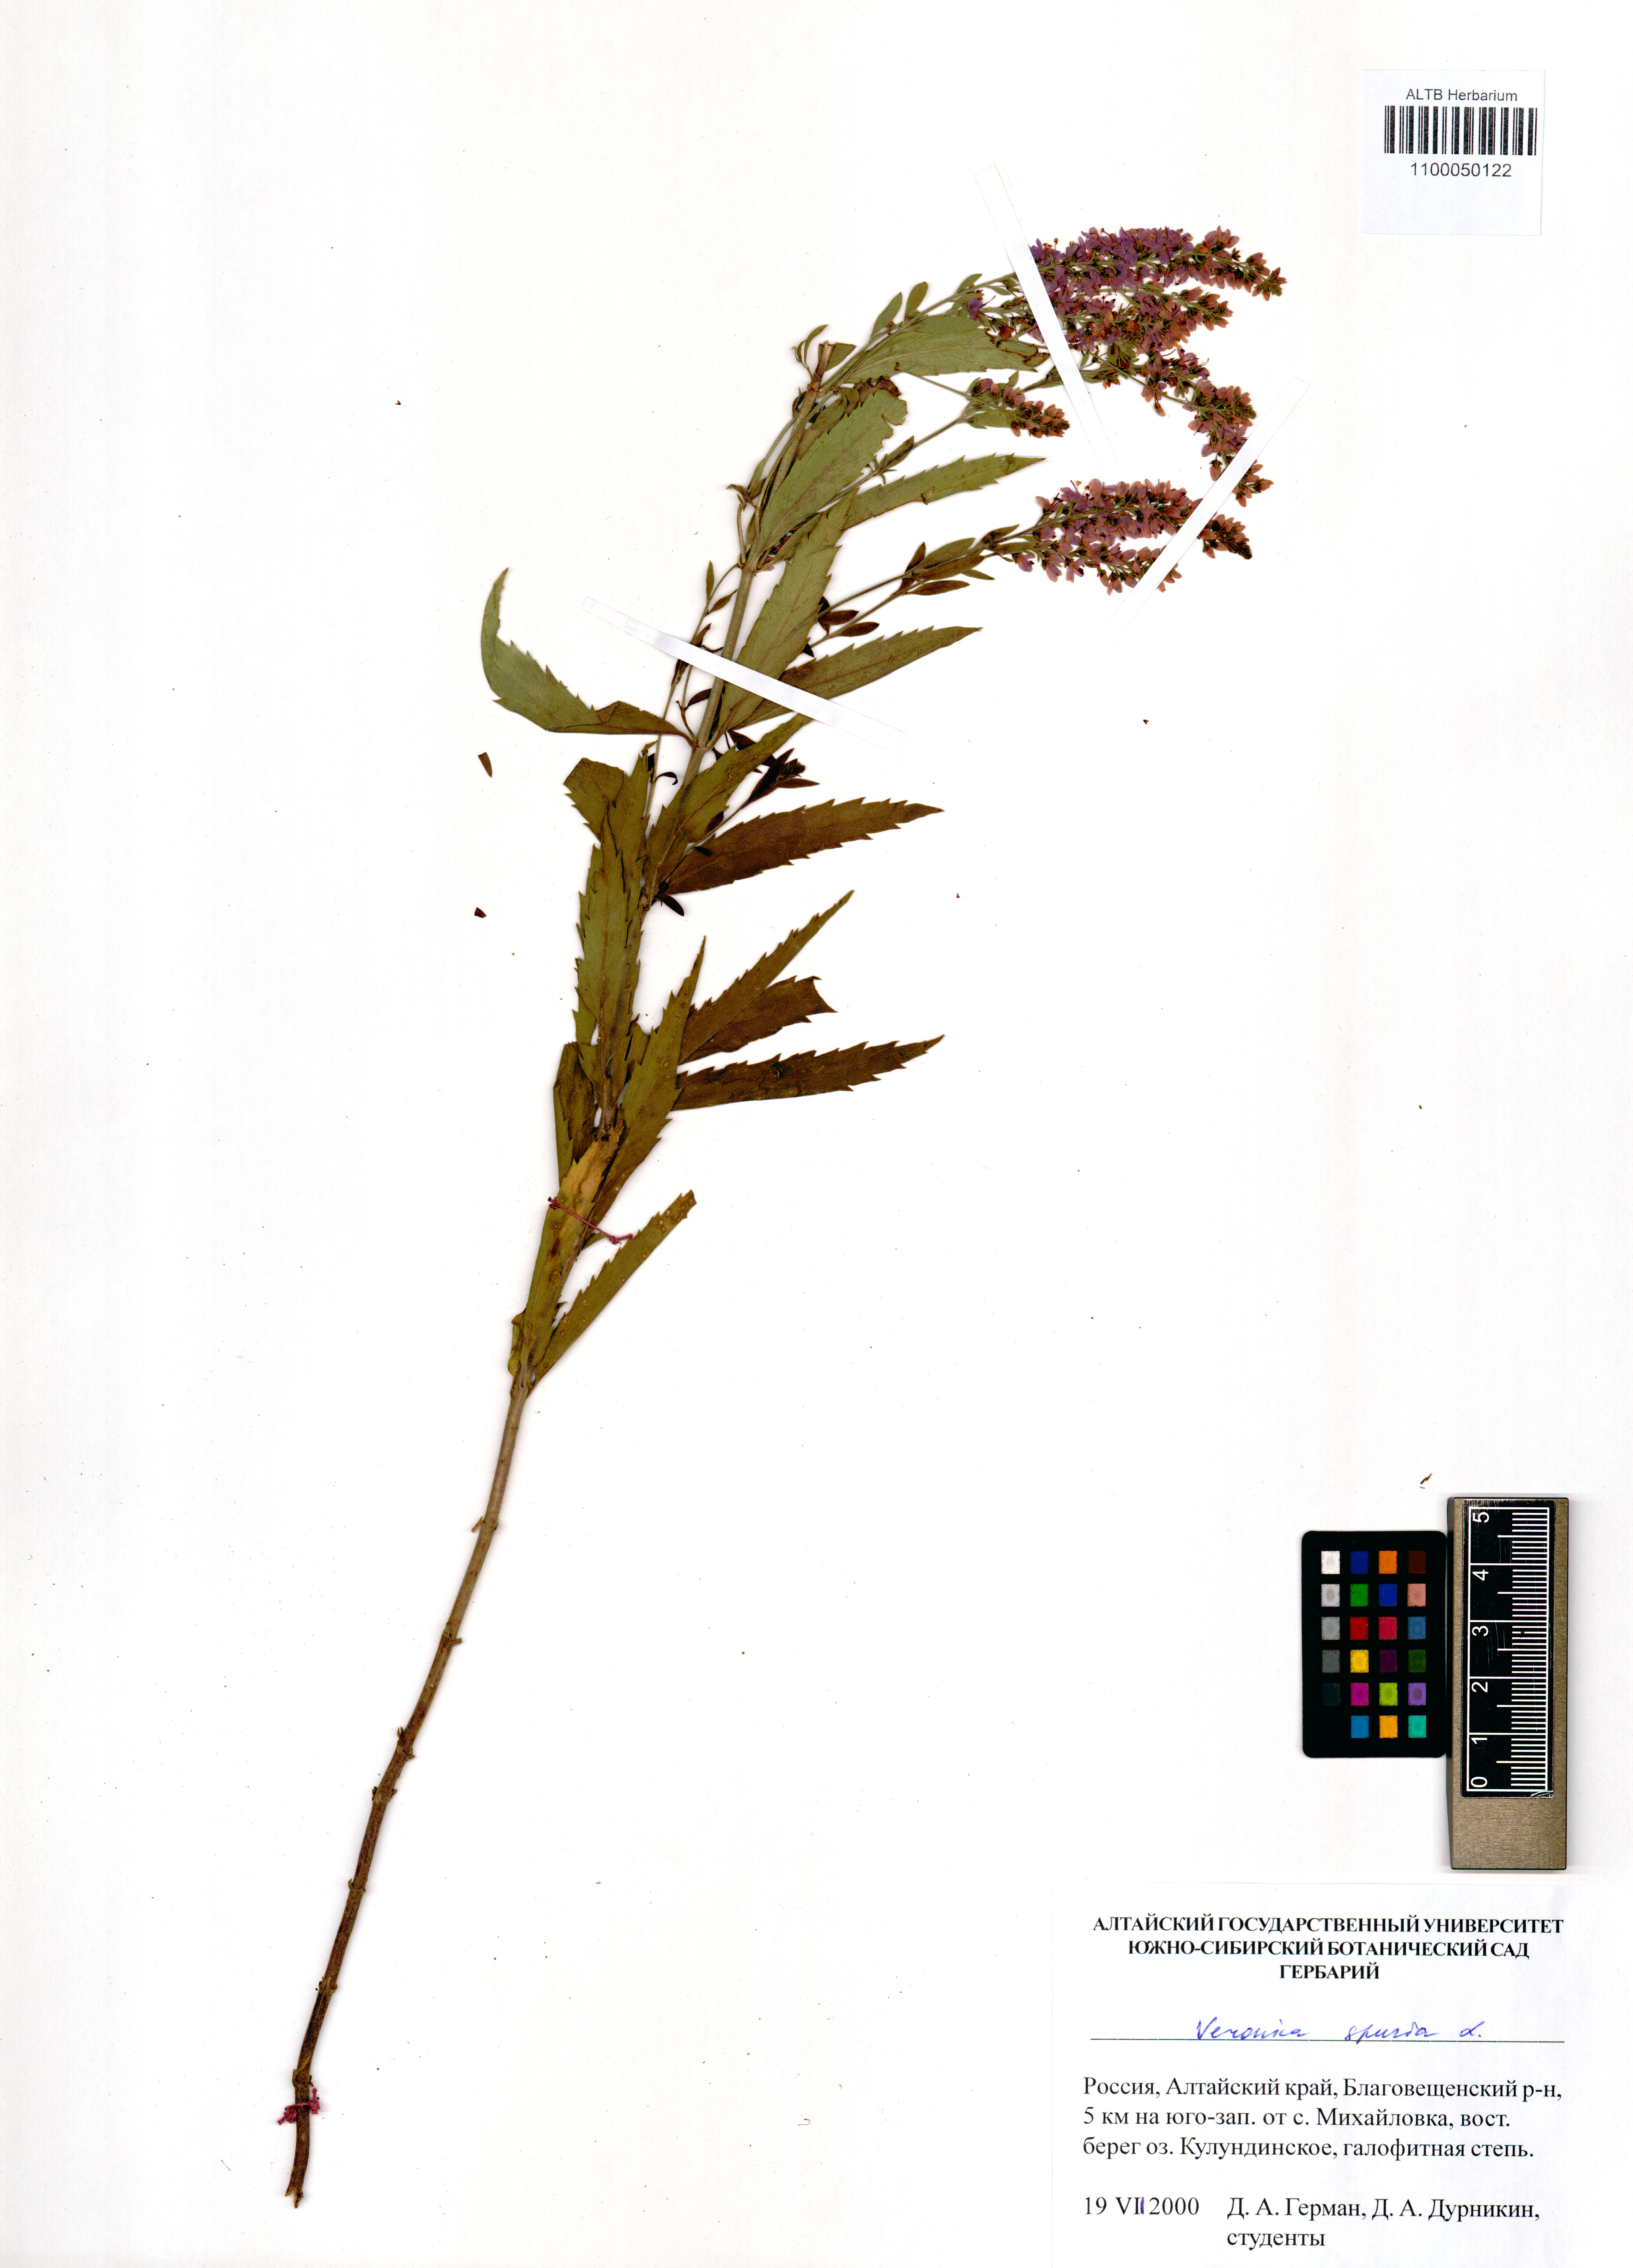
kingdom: Plantae
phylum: Tracheophyta
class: Magnoliopsida
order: Lamiales
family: Plantaginaceae
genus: Veronica
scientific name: Veronica spuria
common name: Bastard speedwell
